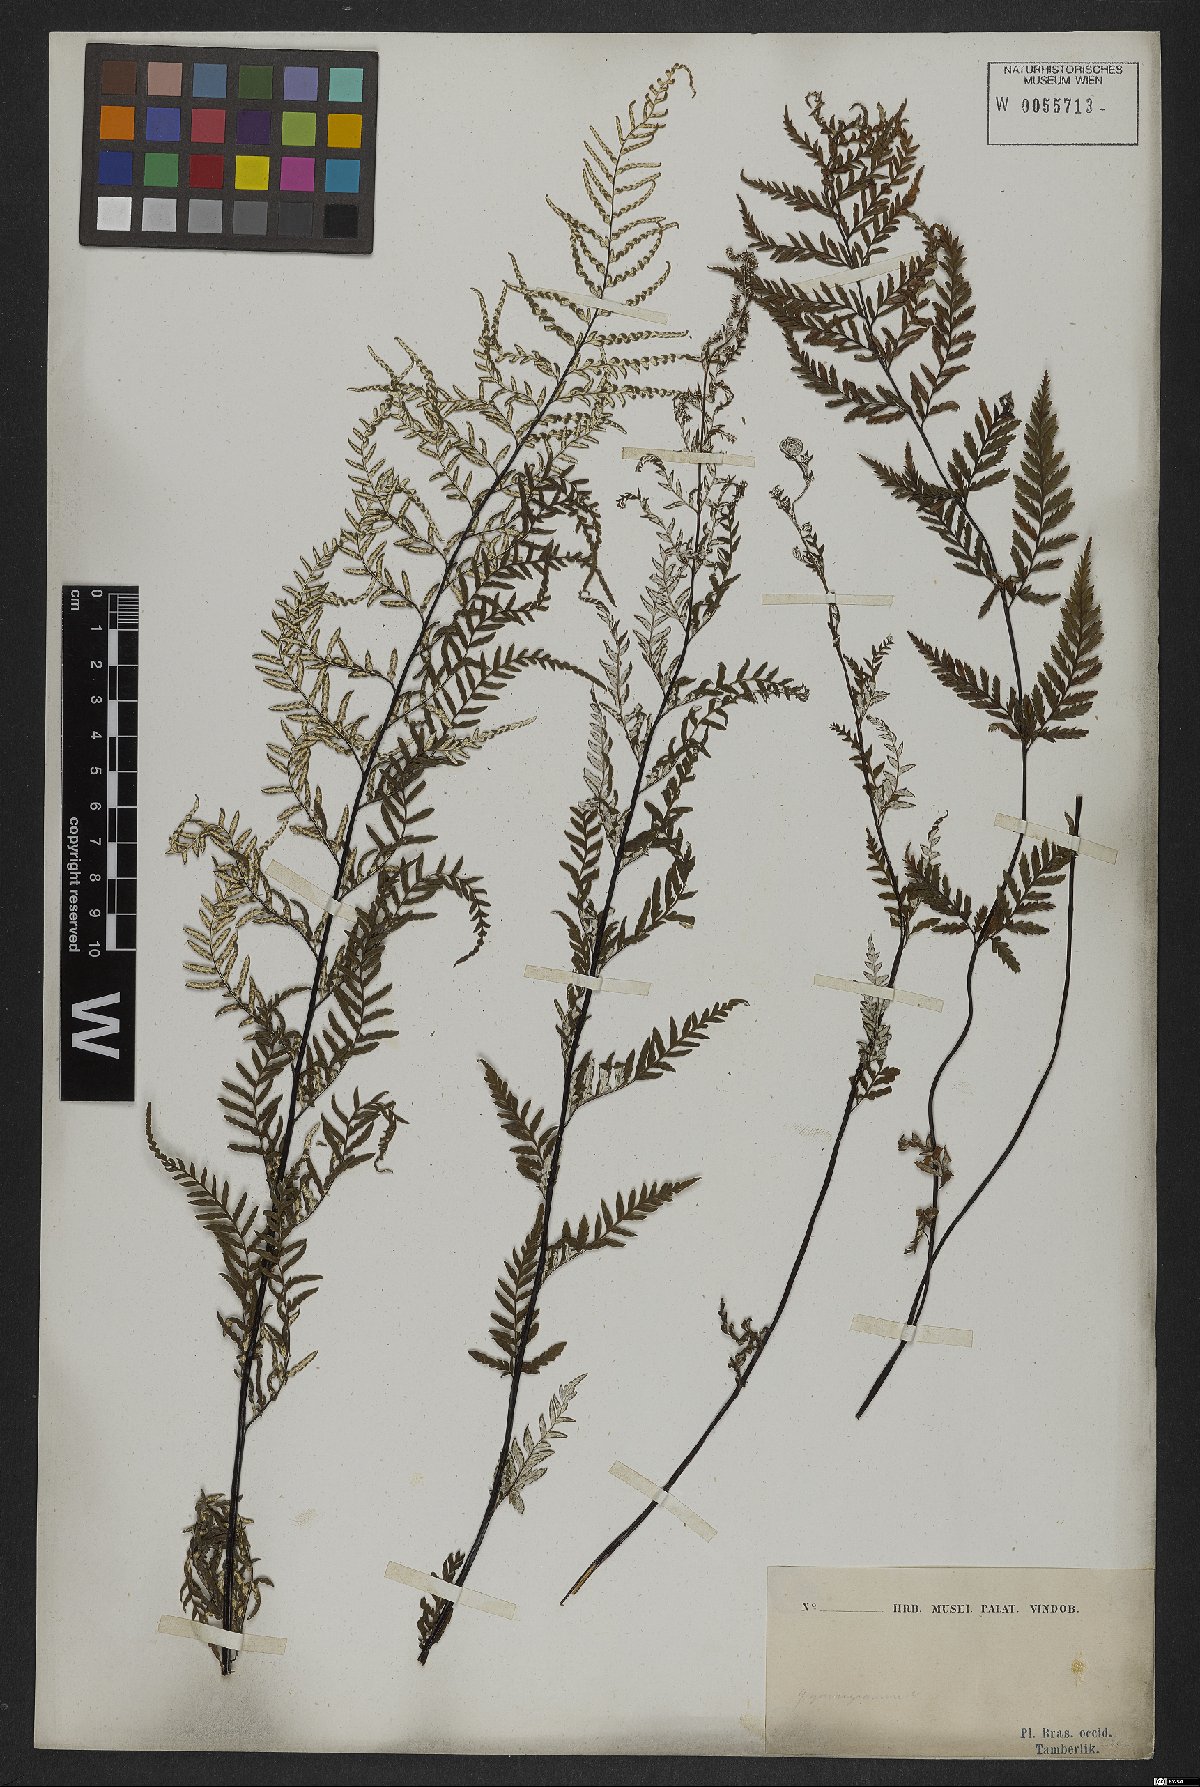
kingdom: Plantae
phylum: Tracheophyta
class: Polypodiopsida
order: Polypodiales
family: Pteridaceae
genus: Hemionitis
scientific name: Hemionitis
